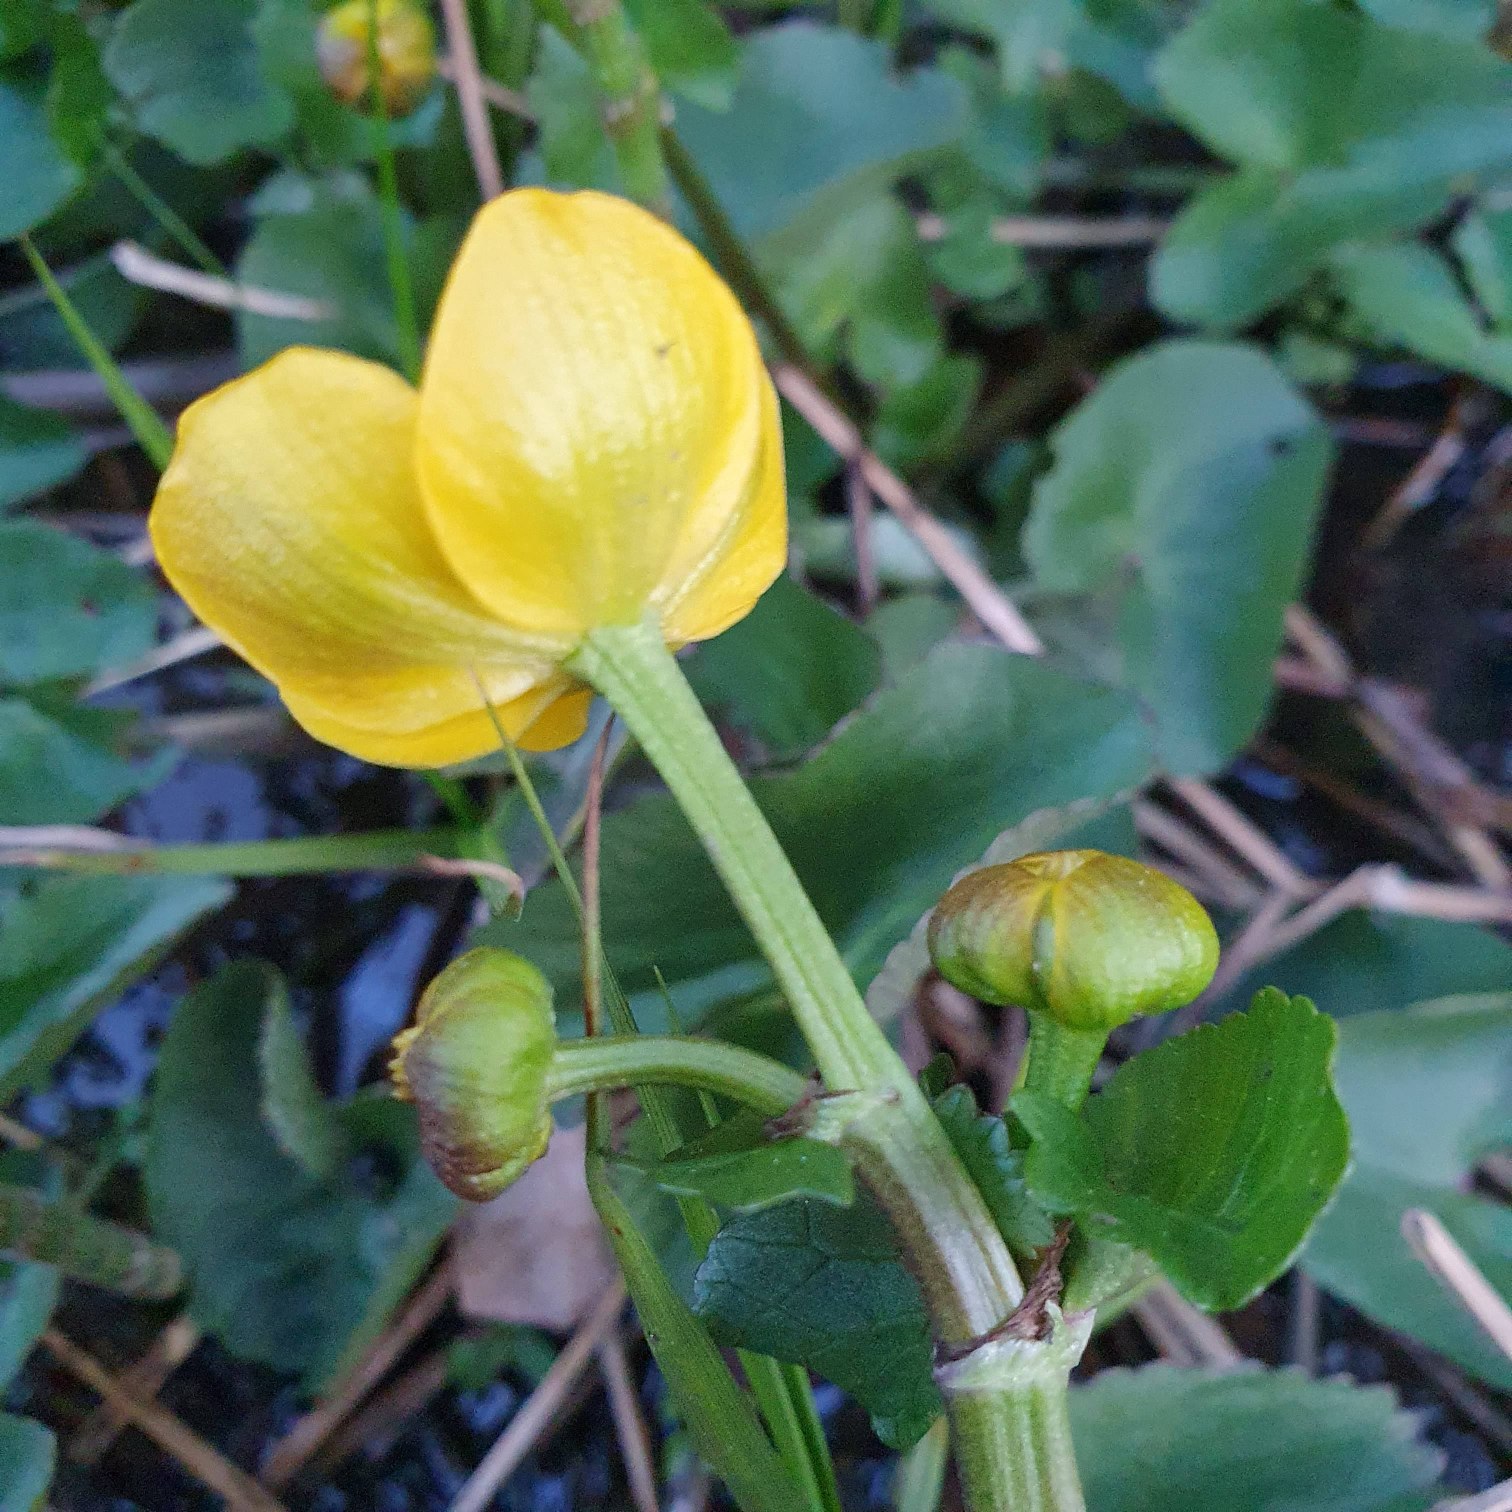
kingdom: Plantae
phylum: Tracheophyta
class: Magnoliopsida
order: Ranunculales
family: Ranunculaceae
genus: Caltha
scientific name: Caltha palustris
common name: Eng-kabbeleje
